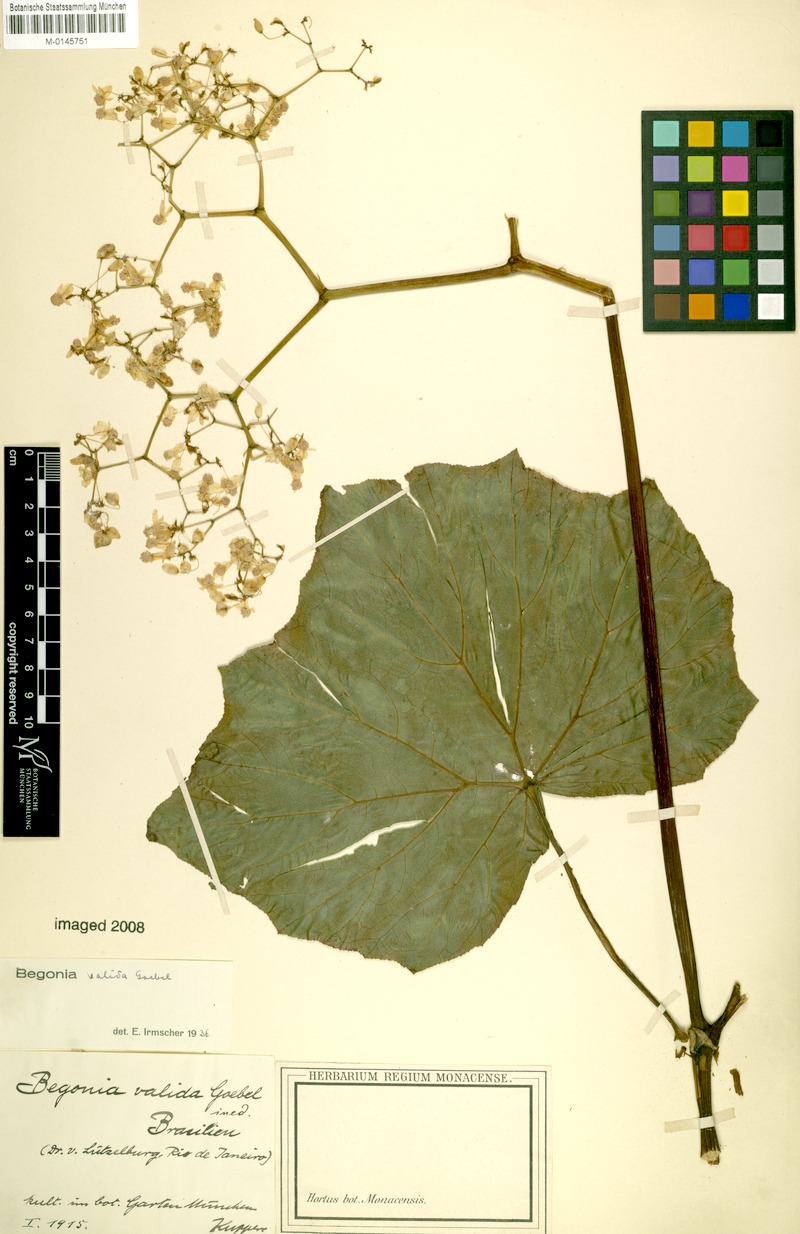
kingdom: Plantae
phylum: Tracheophyta
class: Magnoliopsida
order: Cucurbitales
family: Begoniaceae
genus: Begonia
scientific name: Begonia valida
